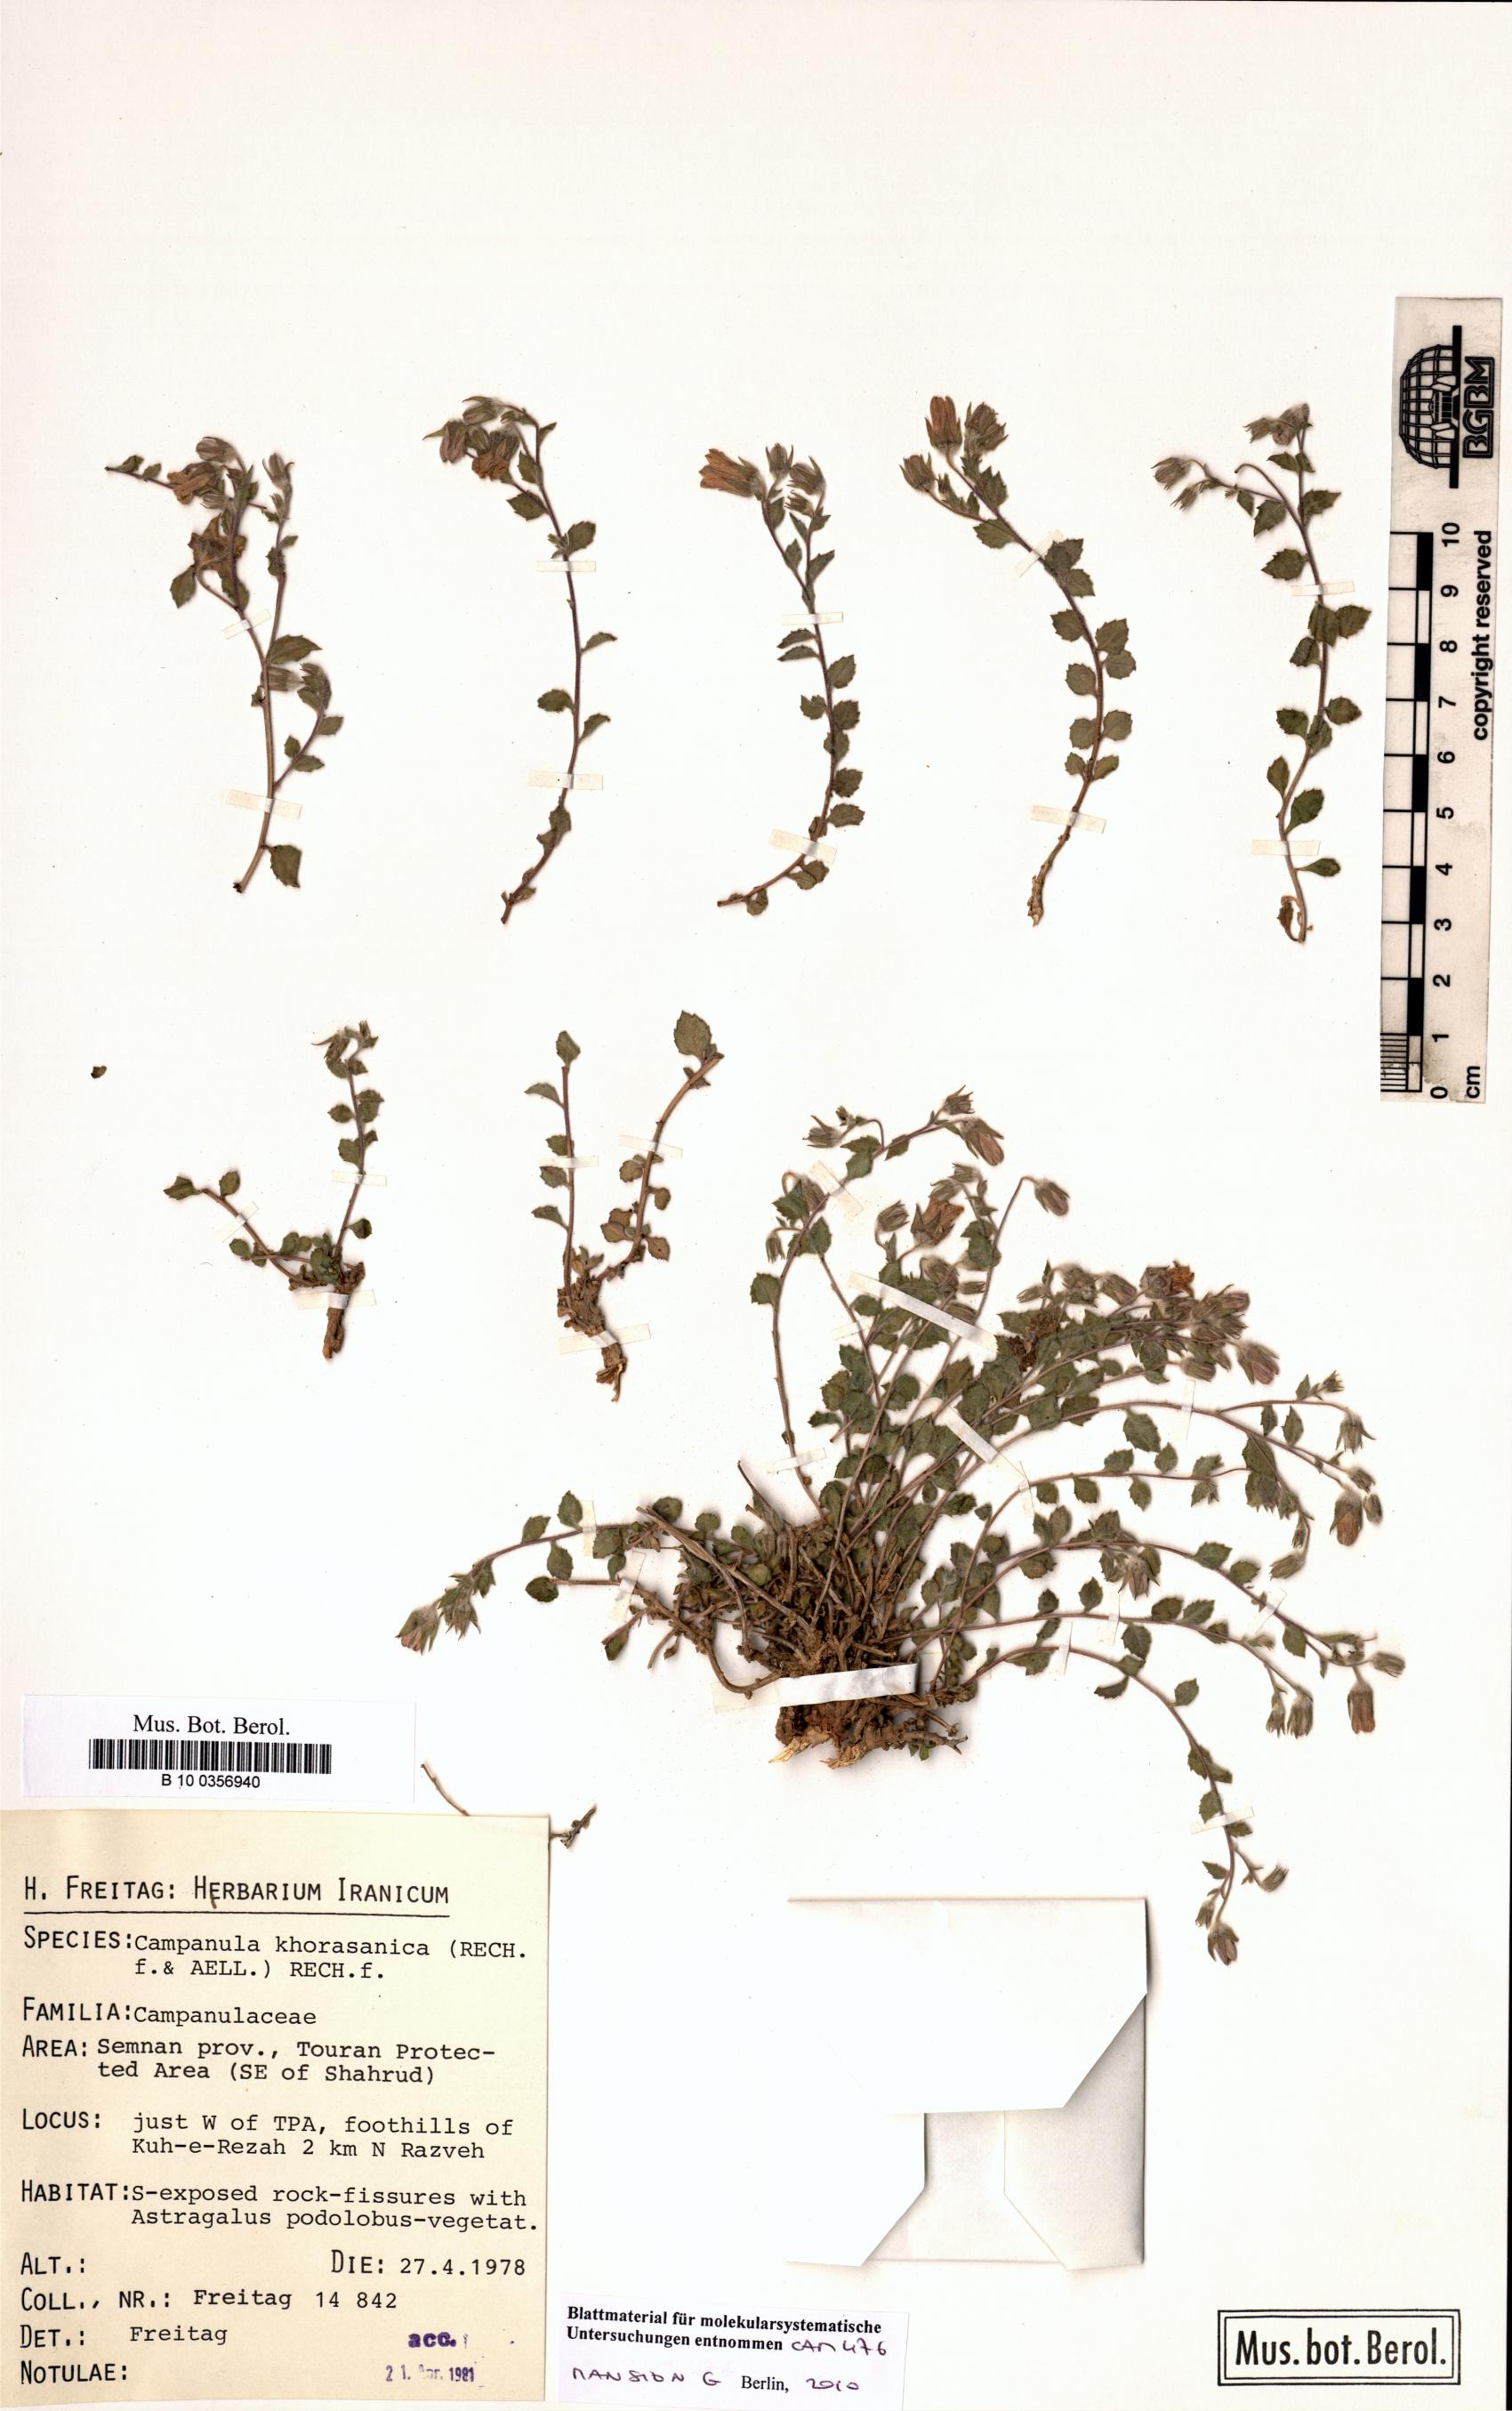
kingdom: Plantae
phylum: Tracheophyta
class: Magnoliopsida
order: Asterales
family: Campanulaceae
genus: Campanula
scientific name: Campanula khorasanica
